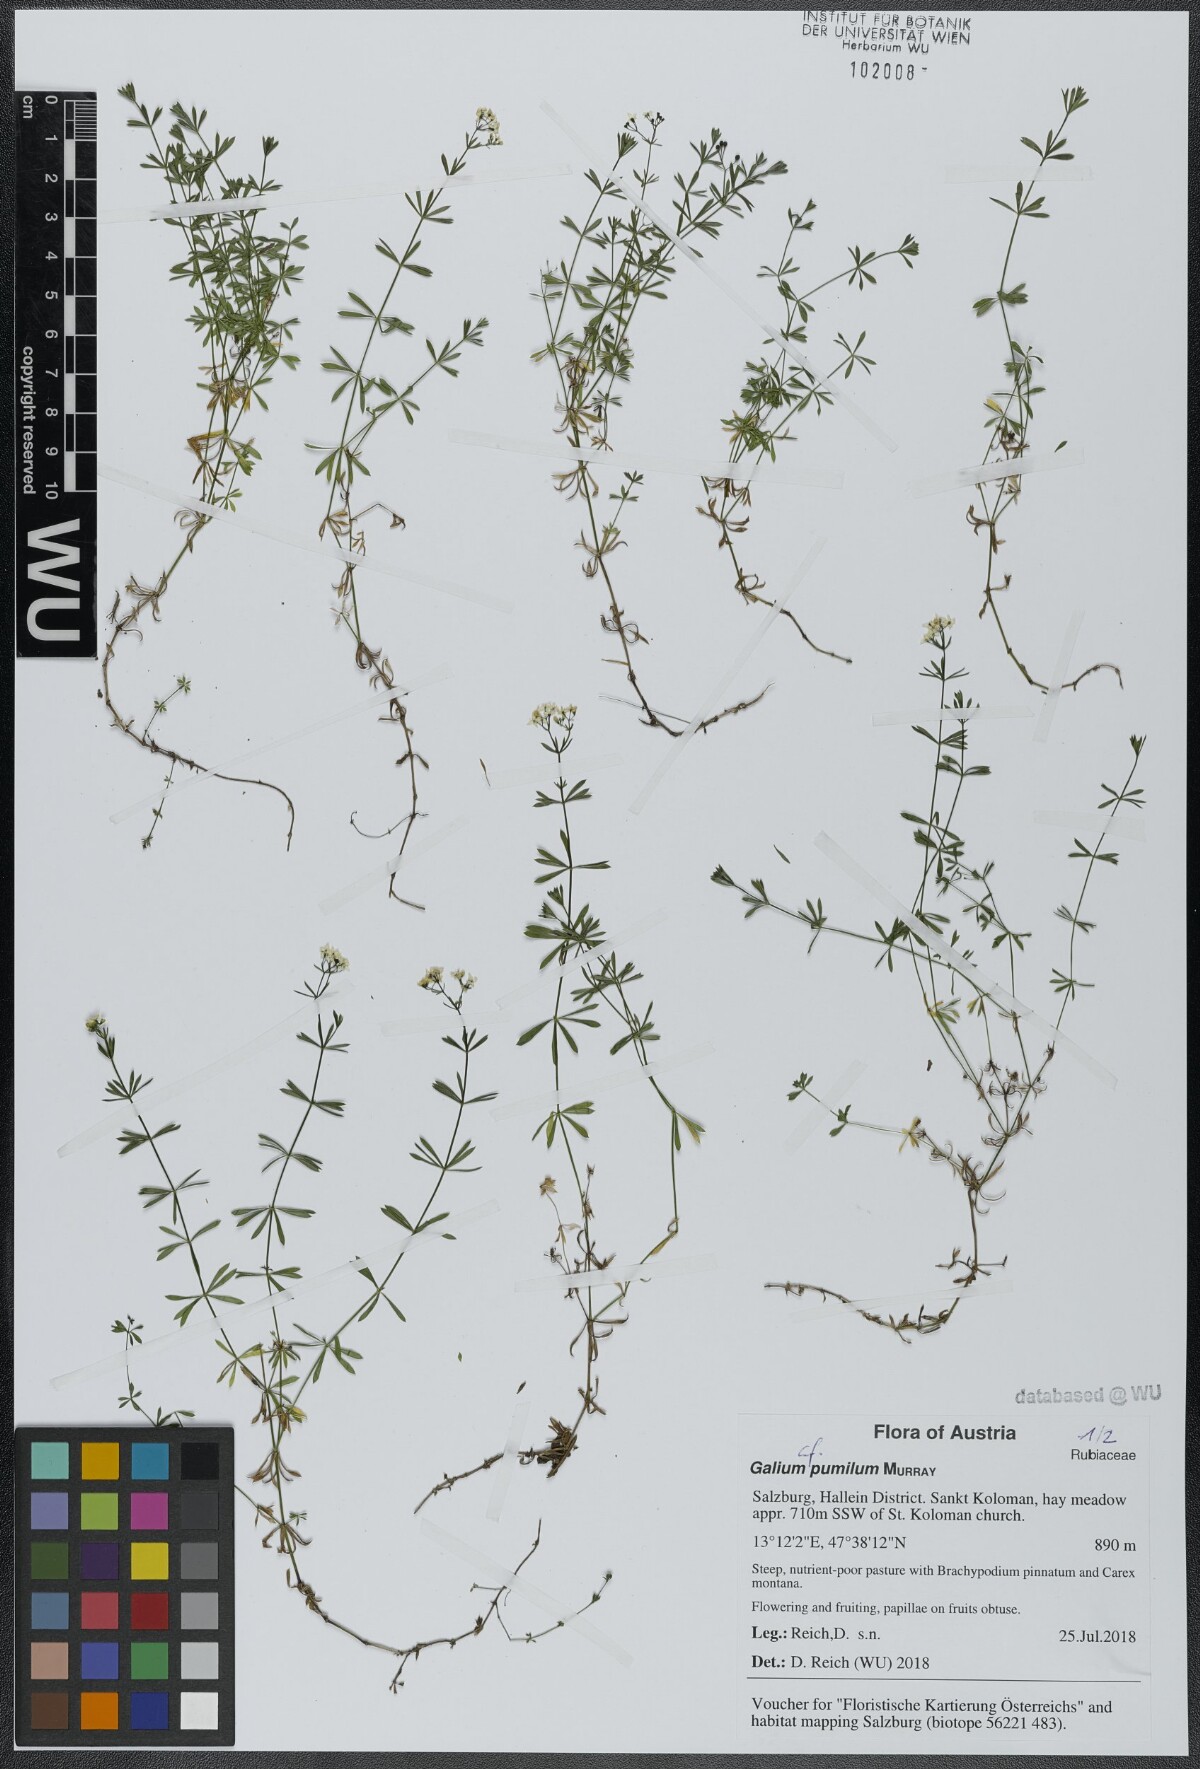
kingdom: Plantae
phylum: Tracheophyta
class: Magnoliopsida
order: Gentianales
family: Rubiaceae
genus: Galium
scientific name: Galium pumilum
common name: Slender bedstraw
